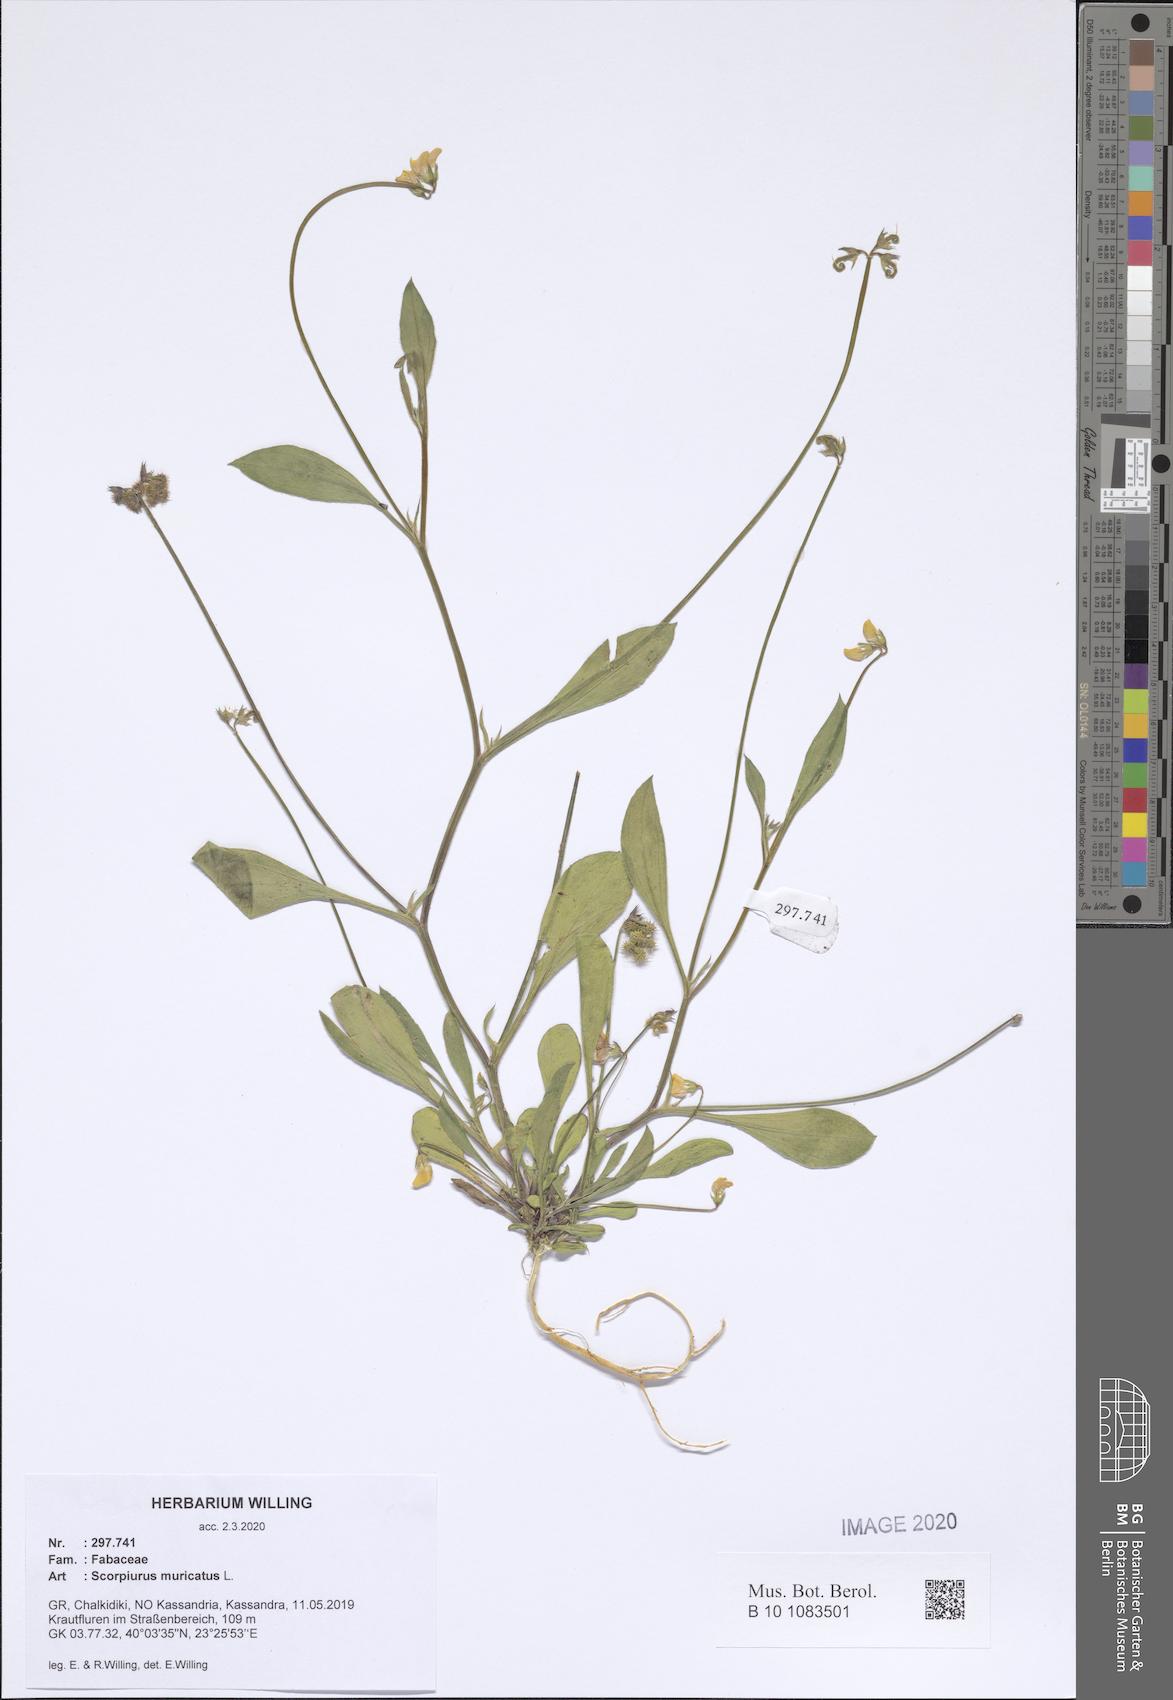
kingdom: Plantae
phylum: Tracheophyta
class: Magnoliopsida
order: Fabales
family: Fabaceae
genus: Scorpiurus
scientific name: Scorpiurus muricatus
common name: Caterpillar-plant
